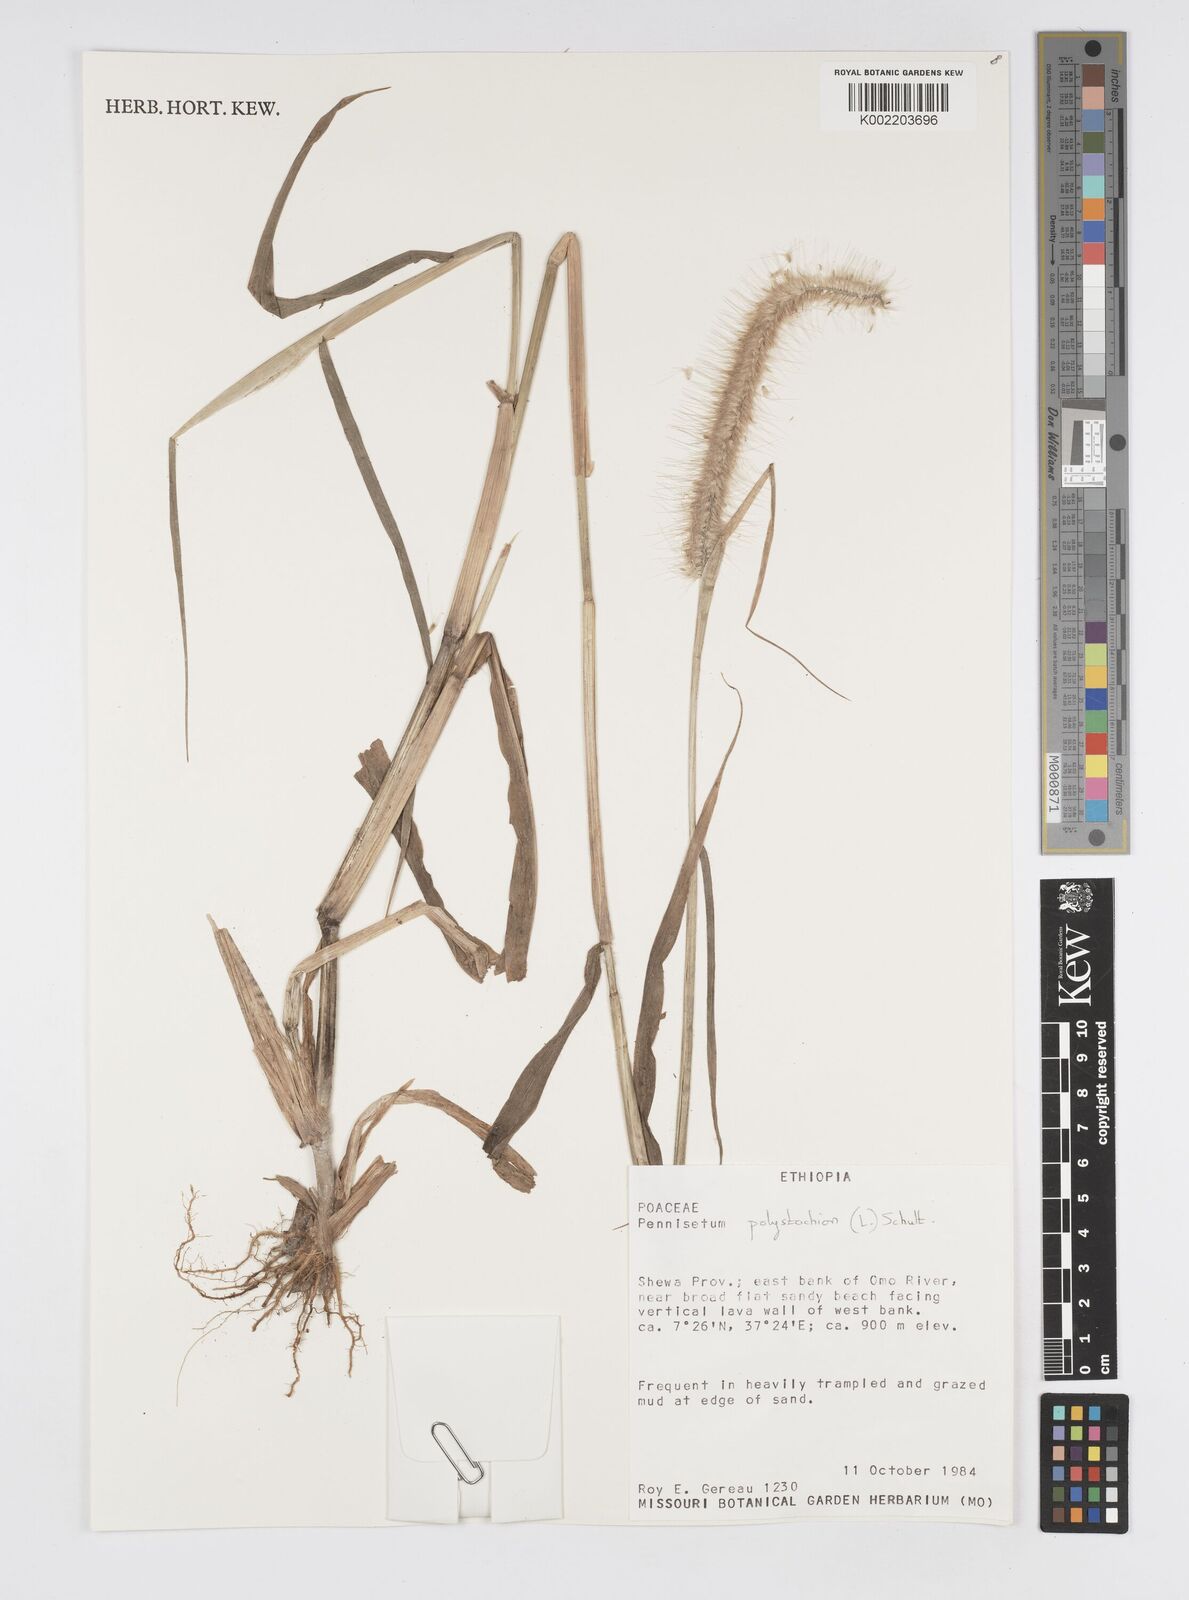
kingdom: Plantae
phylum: Tracheophyta
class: Liliopsida
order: Poales
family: Poaceae
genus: Setaria
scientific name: Setaria parviflora
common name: Knotroot bristle-grass
